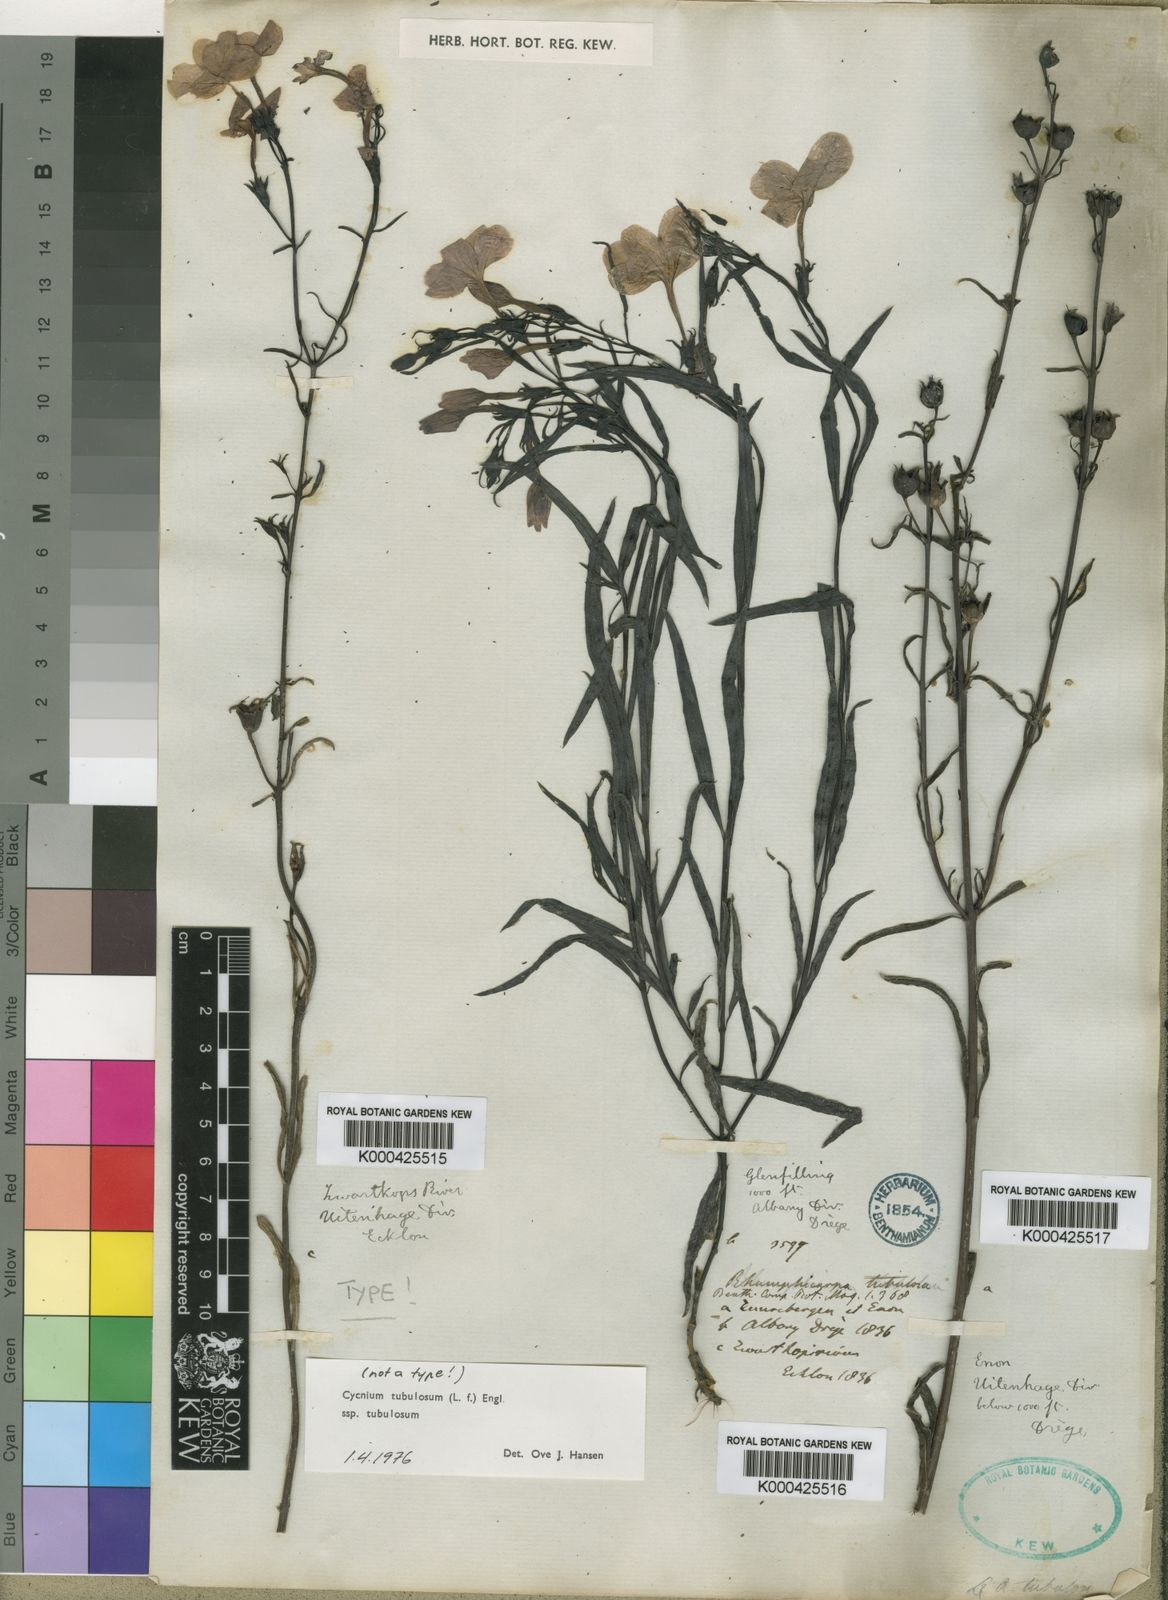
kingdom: Plantae
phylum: Tracheophyta
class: Magnoliopsida
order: Lamiales
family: Orobanchaceae
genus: Cycnium
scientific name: Cycnium tubulosum
